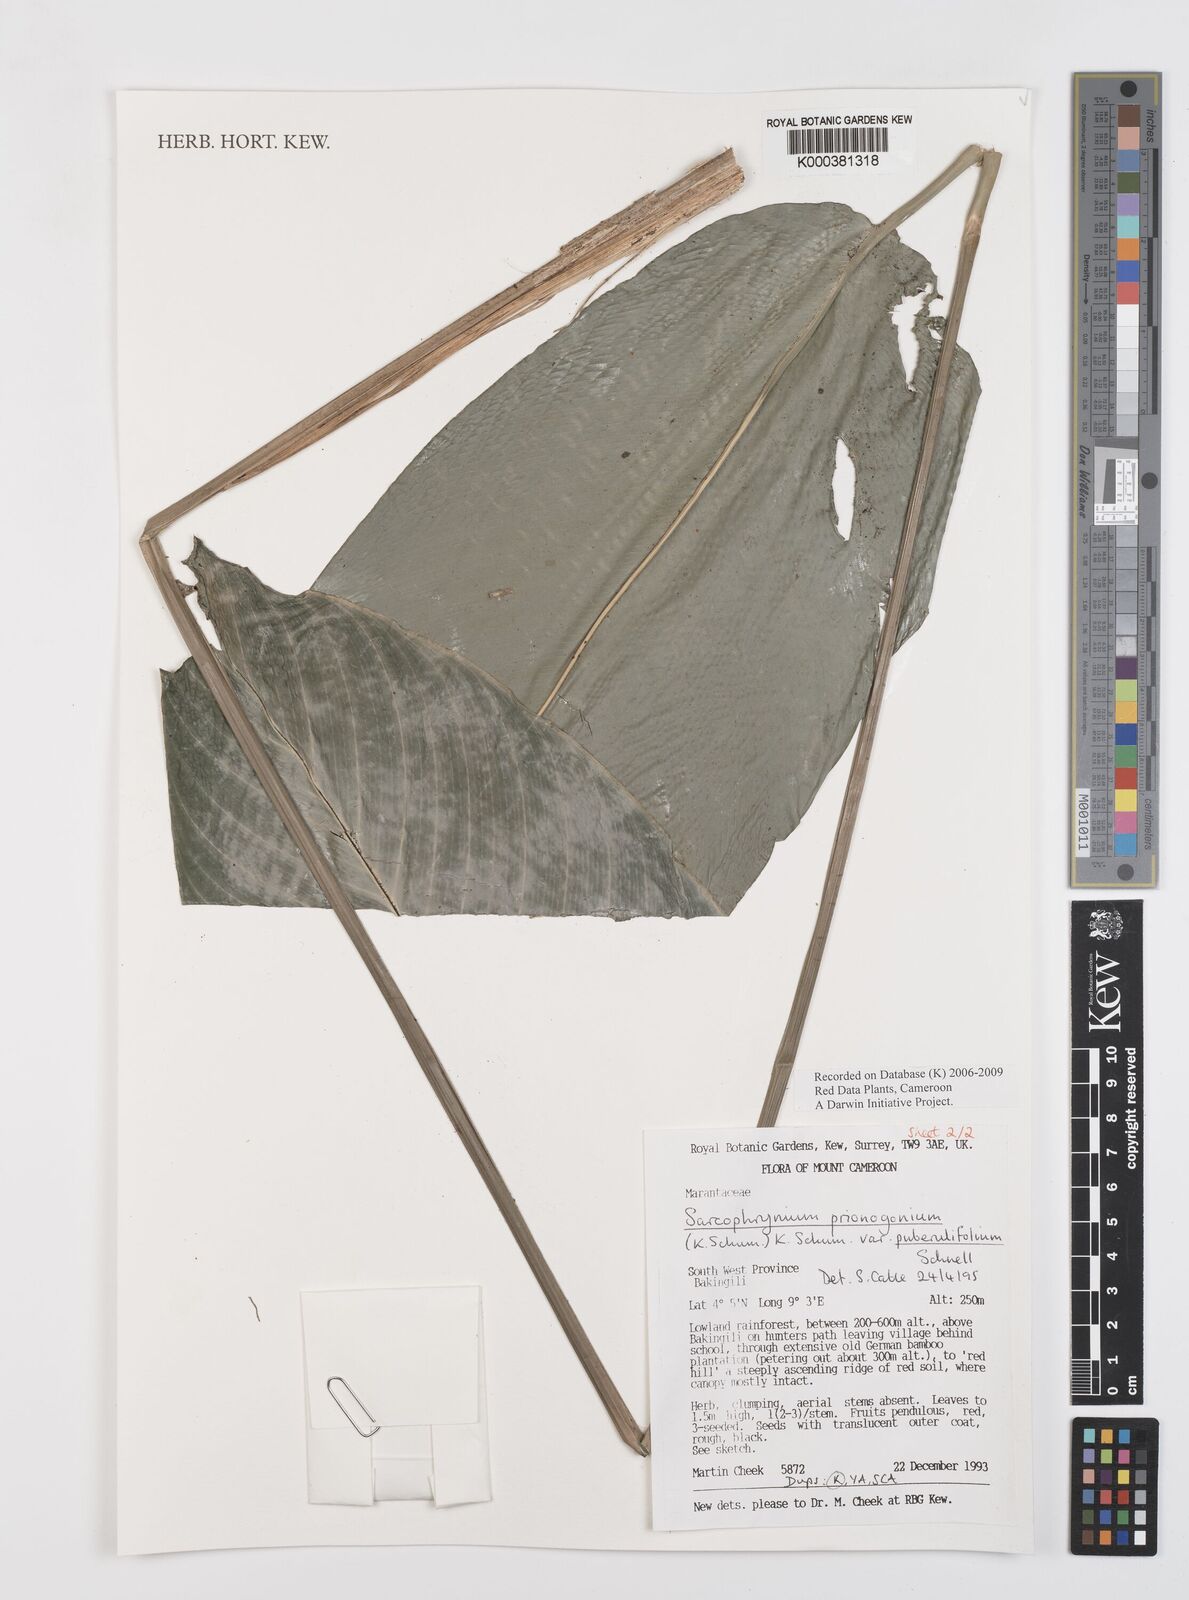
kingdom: Plantae
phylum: Tracheophyta
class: Liliopsida
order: Zingiberales
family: Marantaceae
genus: Sarcophrynium
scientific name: Sarcophrynium prionogonium
